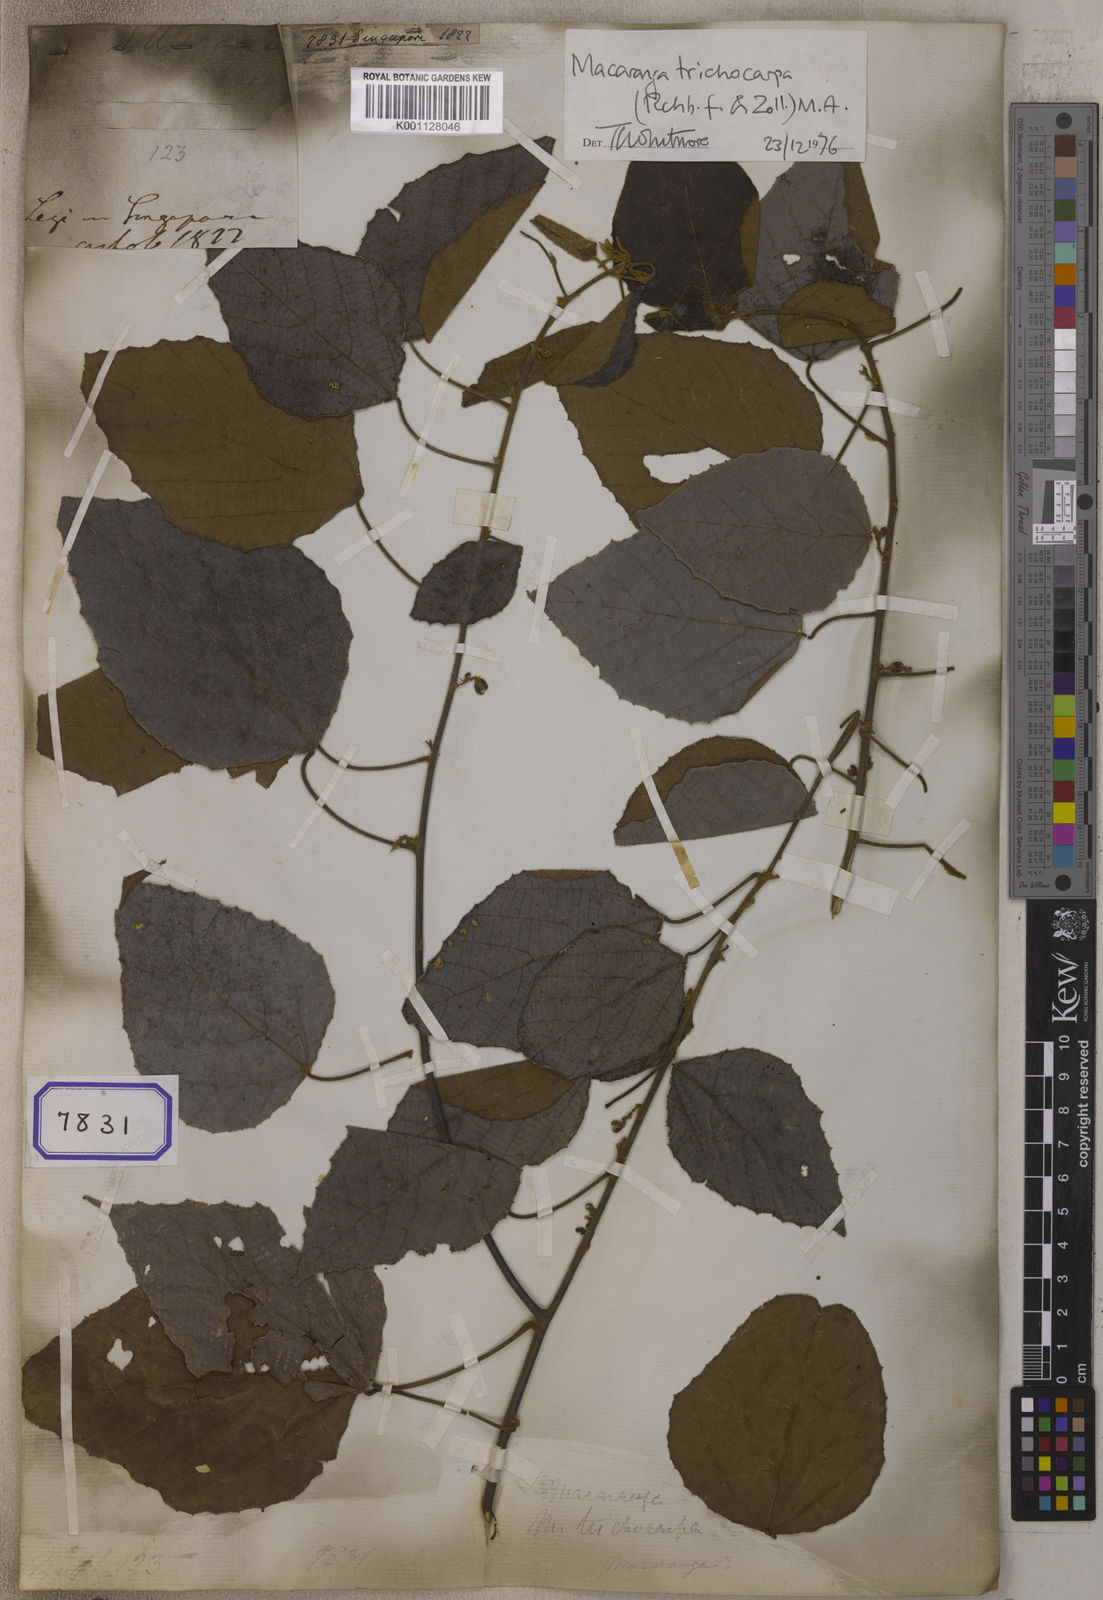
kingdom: Plantae
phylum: Tracheophyta
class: Magnoliopsida
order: Malpighiales
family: Euphorbiaceae
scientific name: Euphorbiaceae
